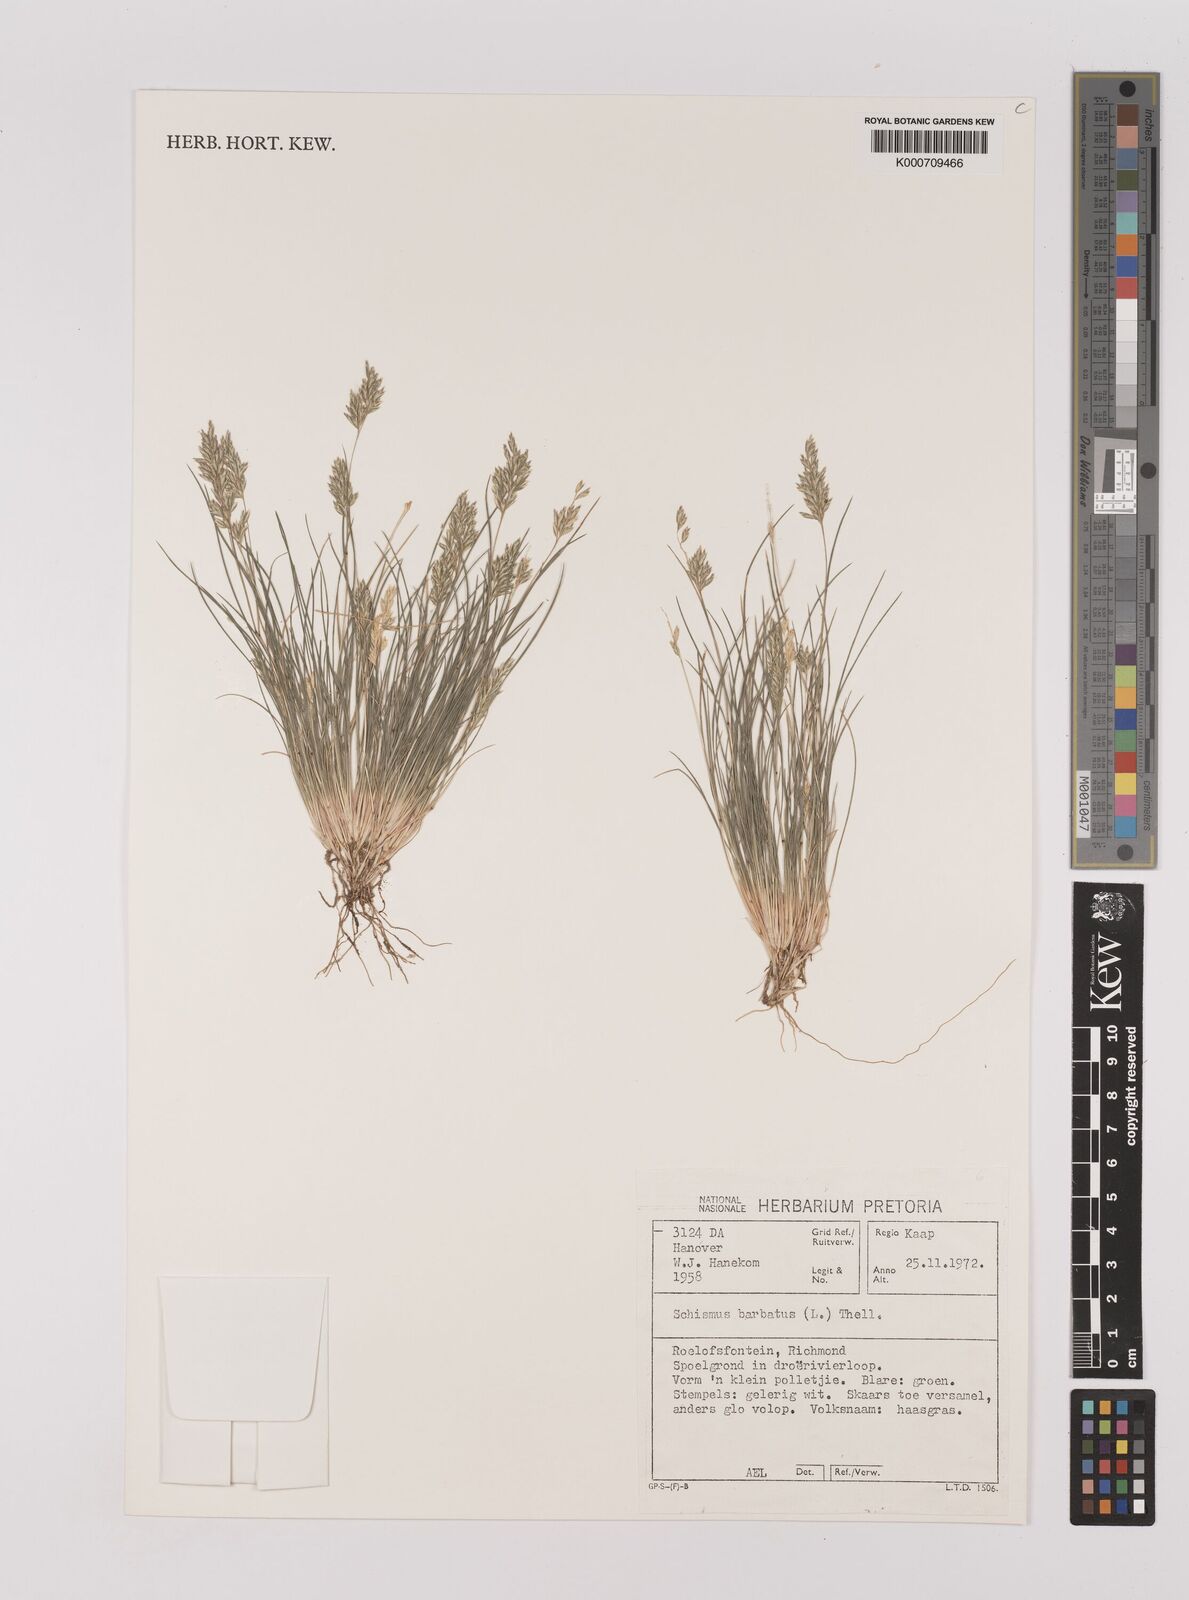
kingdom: Plantae
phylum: Tracheophyta
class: Liliopsida
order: Poales
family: Poaceae
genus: Schismus
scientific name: Schismus barbatus
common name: Kelch-grass
